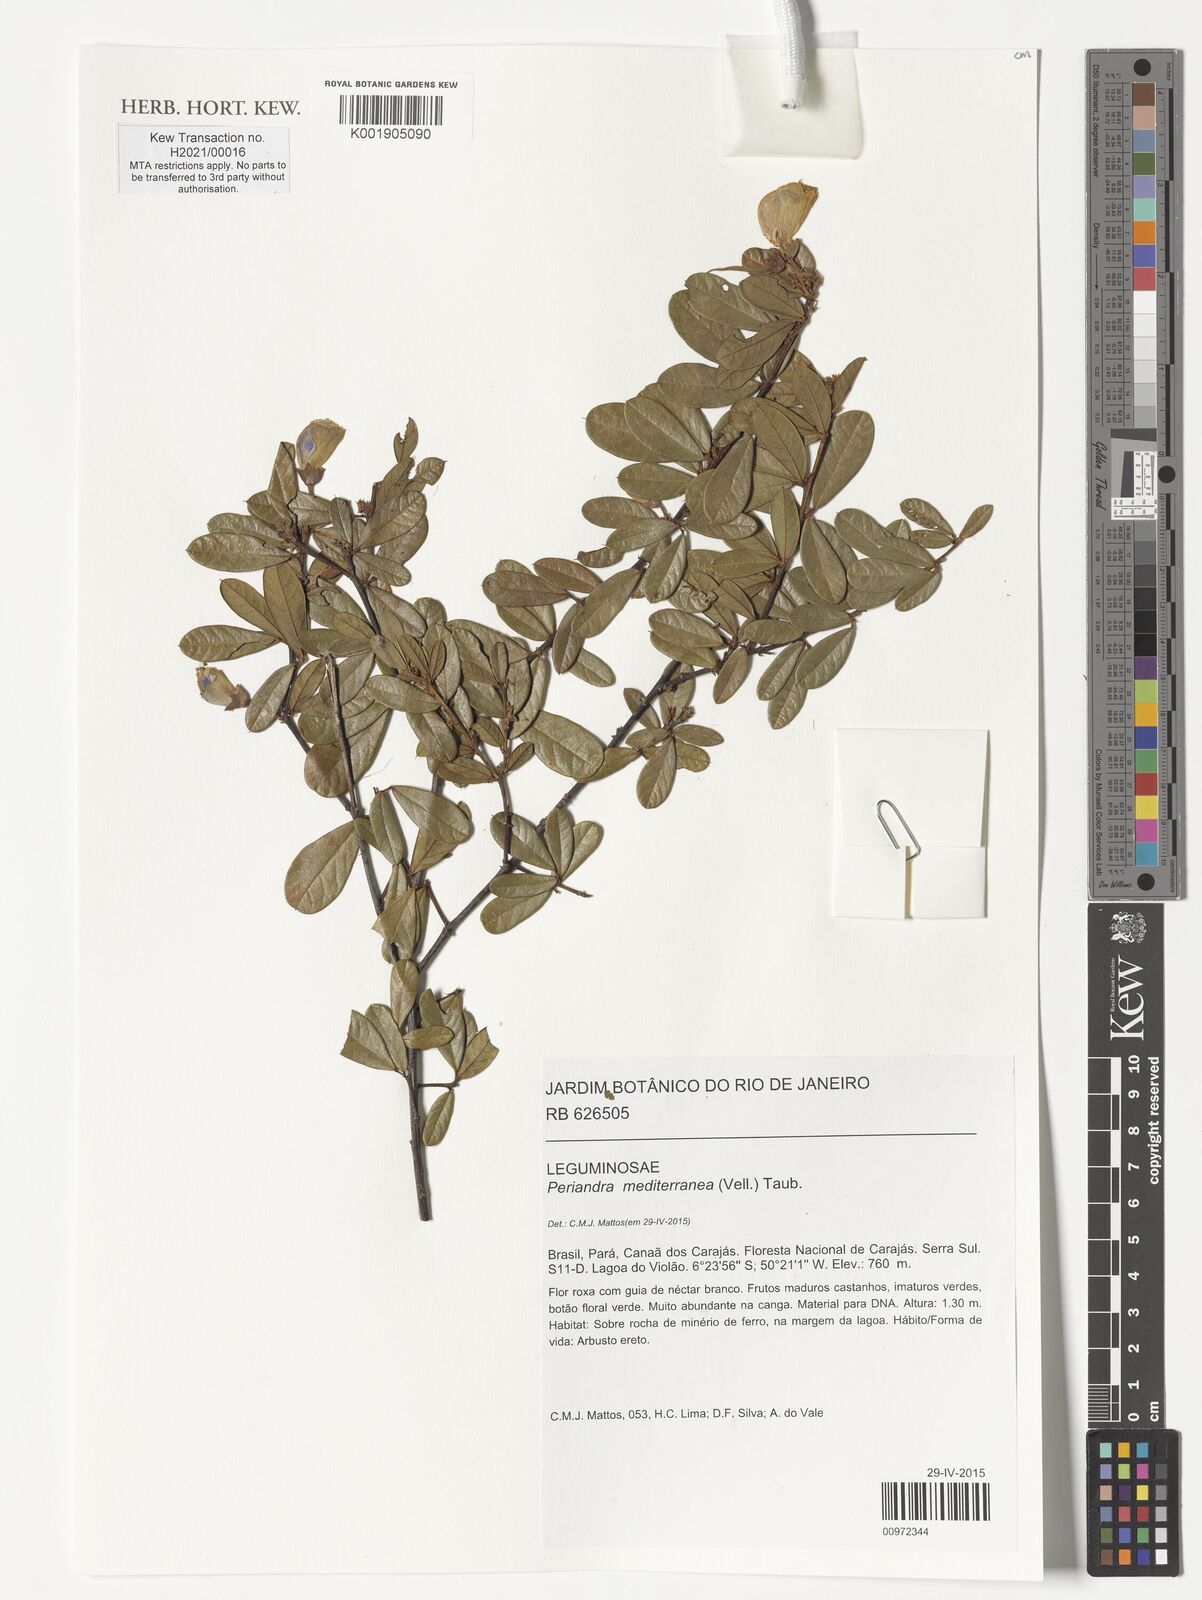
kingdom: Plantae
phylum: Tracheophyta
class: Magnoliopsida
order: Fabales
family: Fabaceae
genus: Periandra
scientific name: Periandra mediterranea
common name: Brazilian licorice
